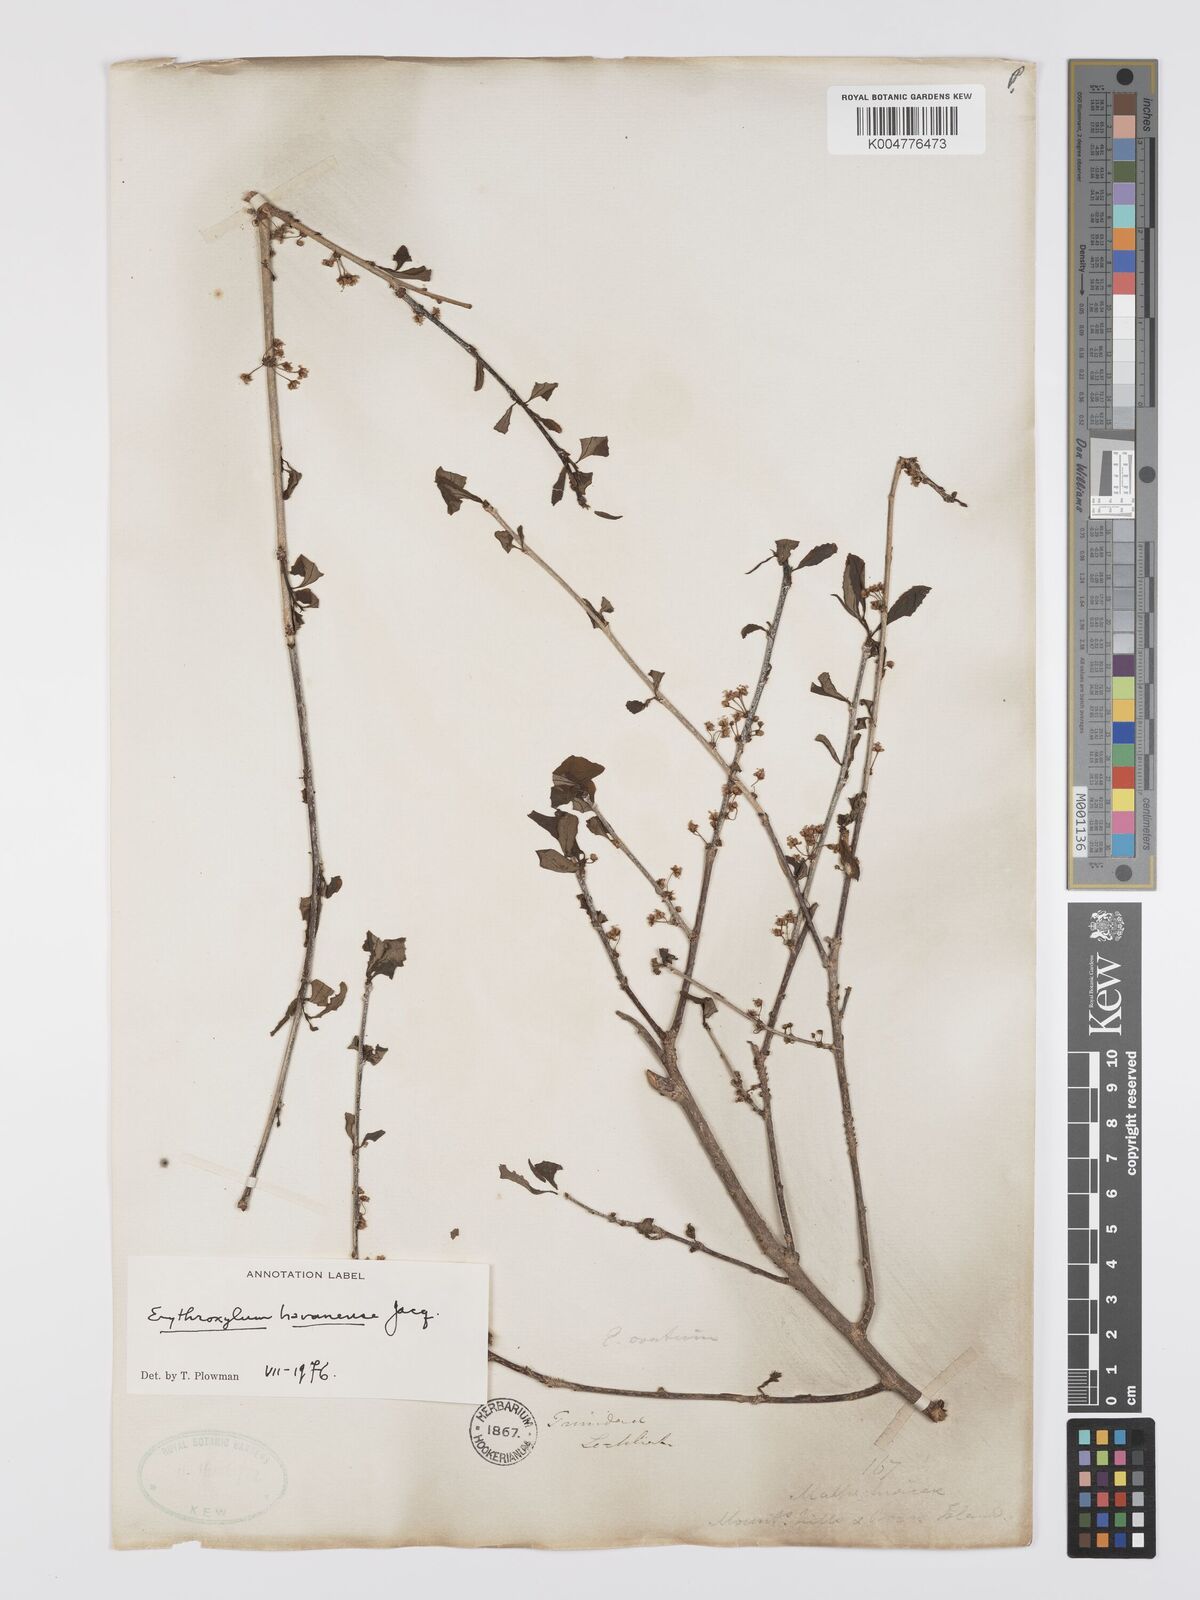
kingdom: Plantae
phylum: Tracheophyta
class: Magnoliopsida
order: Malpighiales
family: Erythroxylaceae
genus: Erythroxylum
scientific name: Erythroxylum
